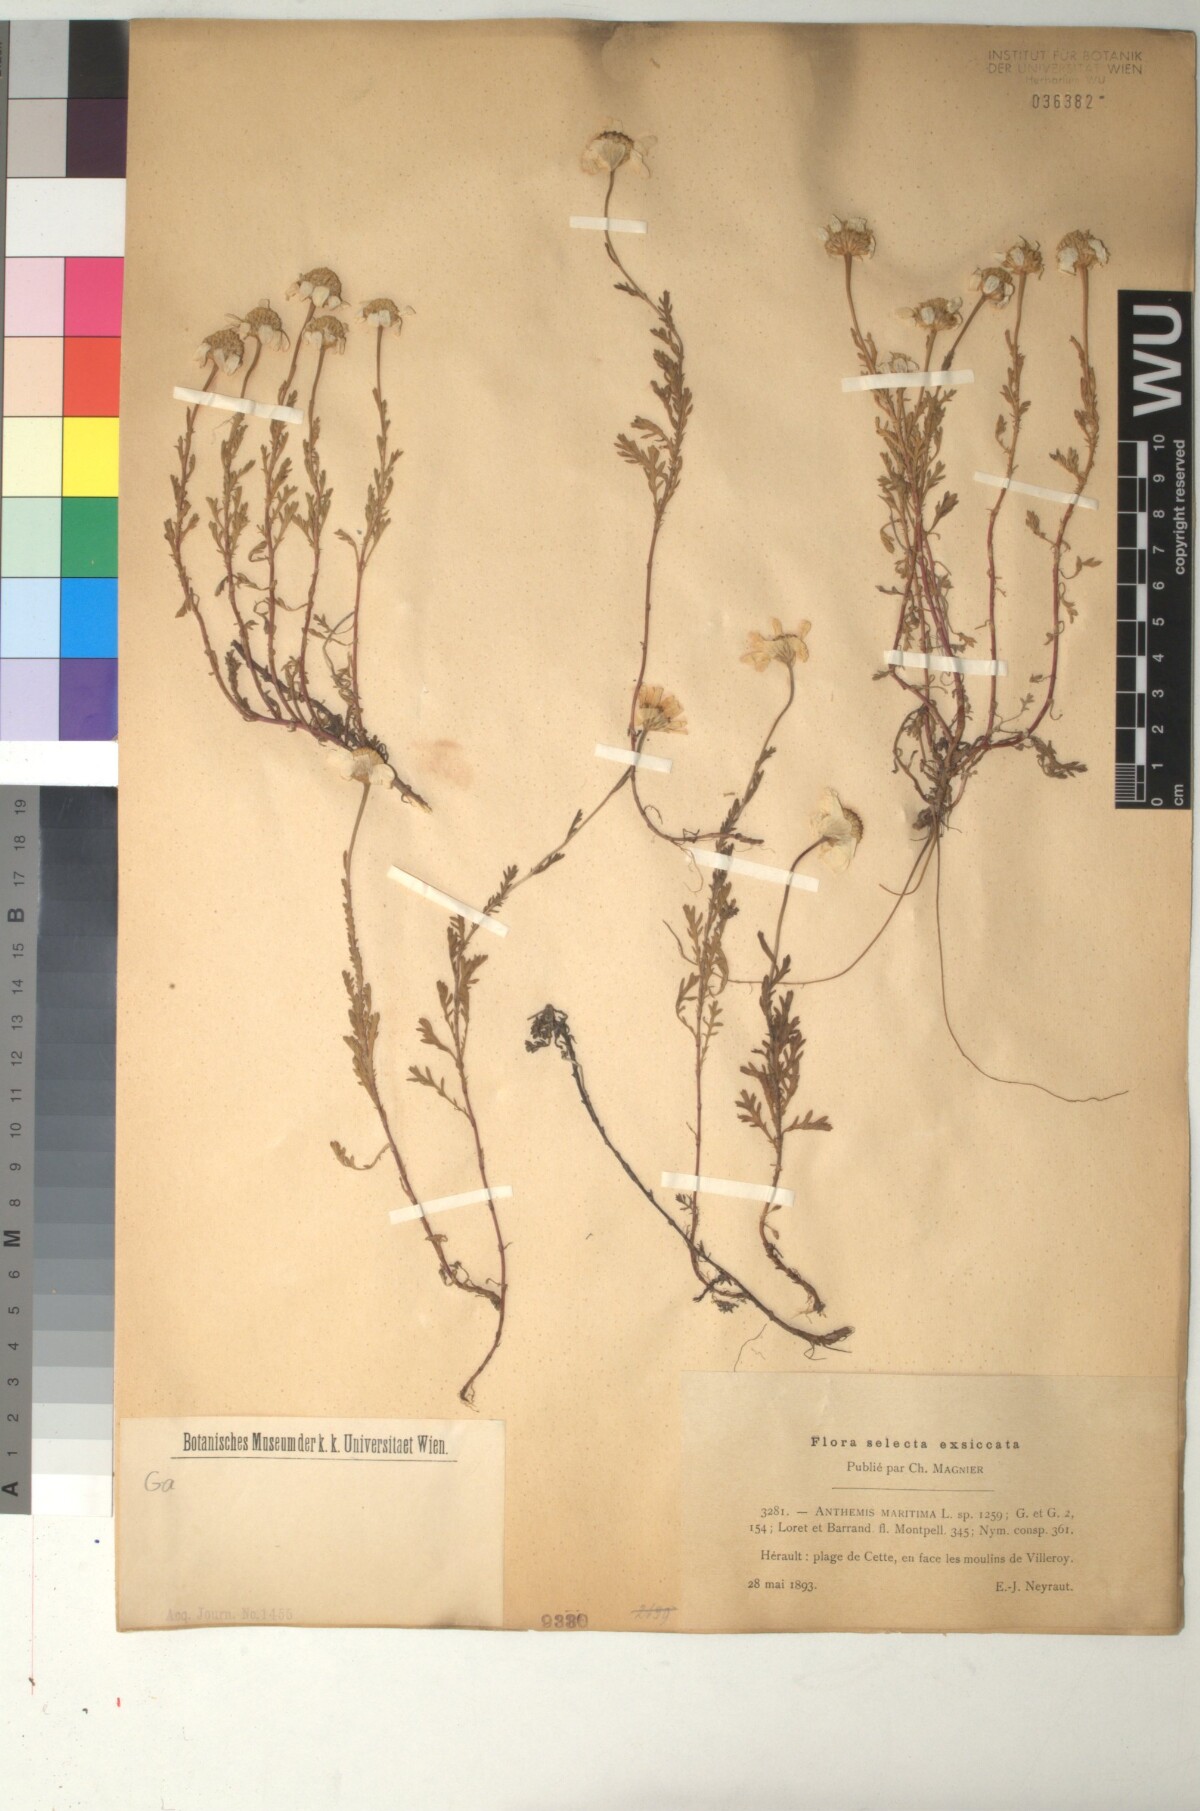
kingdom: Plantae
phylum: Tracheophyta
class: Magnoliopsida
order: Asterales
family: Asteraceae
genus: Anthemis
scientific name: Anthemis maritima
